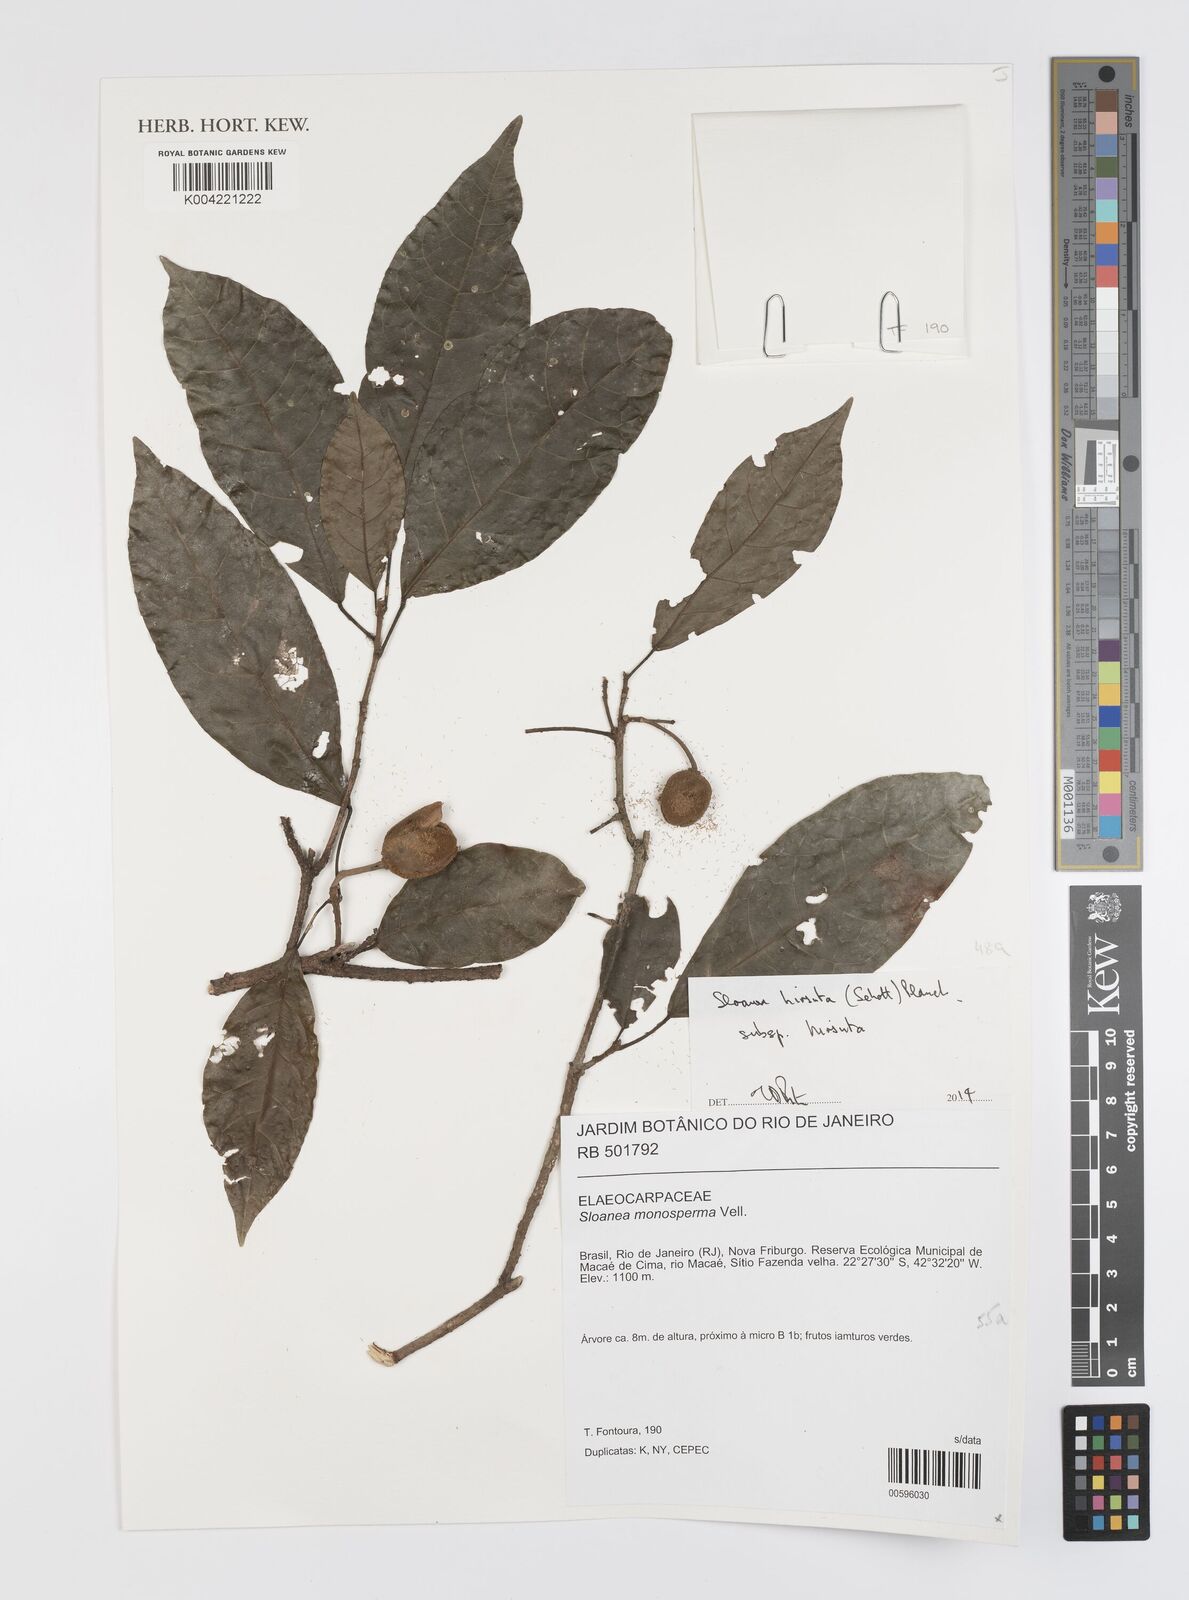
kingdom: Plantae
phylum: Tracheophyta
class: Magnoliopsida
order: Oxalidales
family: Elaeocarpaceae
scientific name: Elaeocarpaceae
